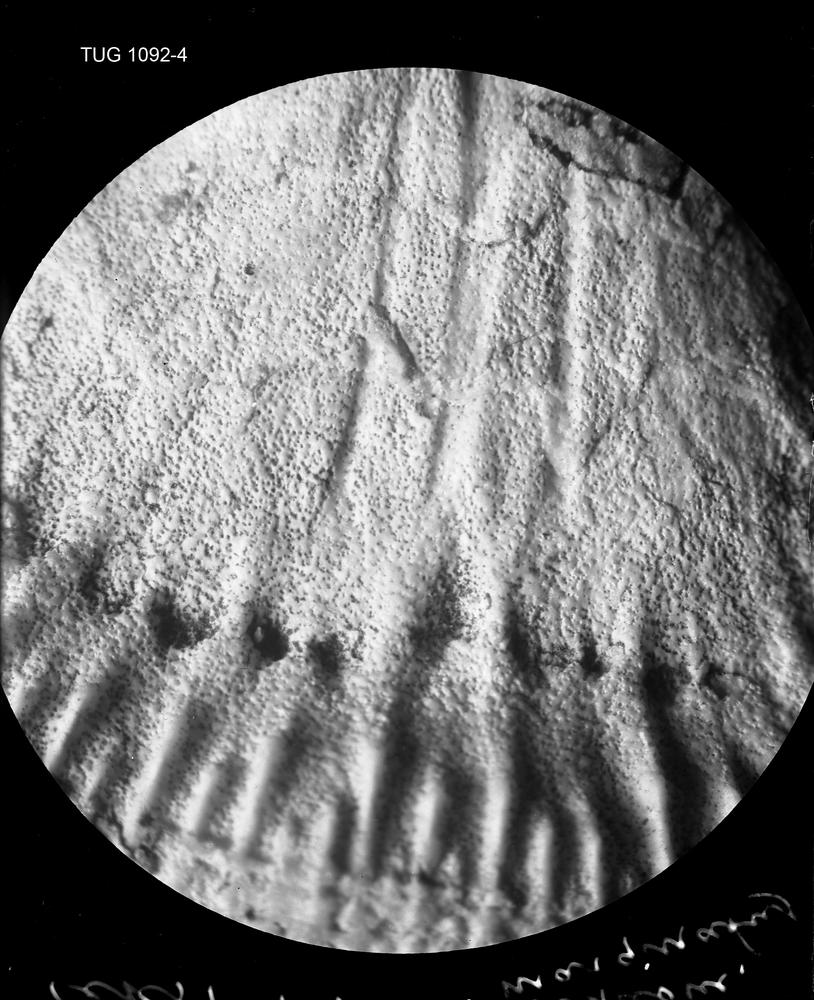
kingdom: Animalia
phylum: Brachiopoda
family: Gonambonitidae
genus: Estlandia
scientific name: Estlandia Orthisina marginata
